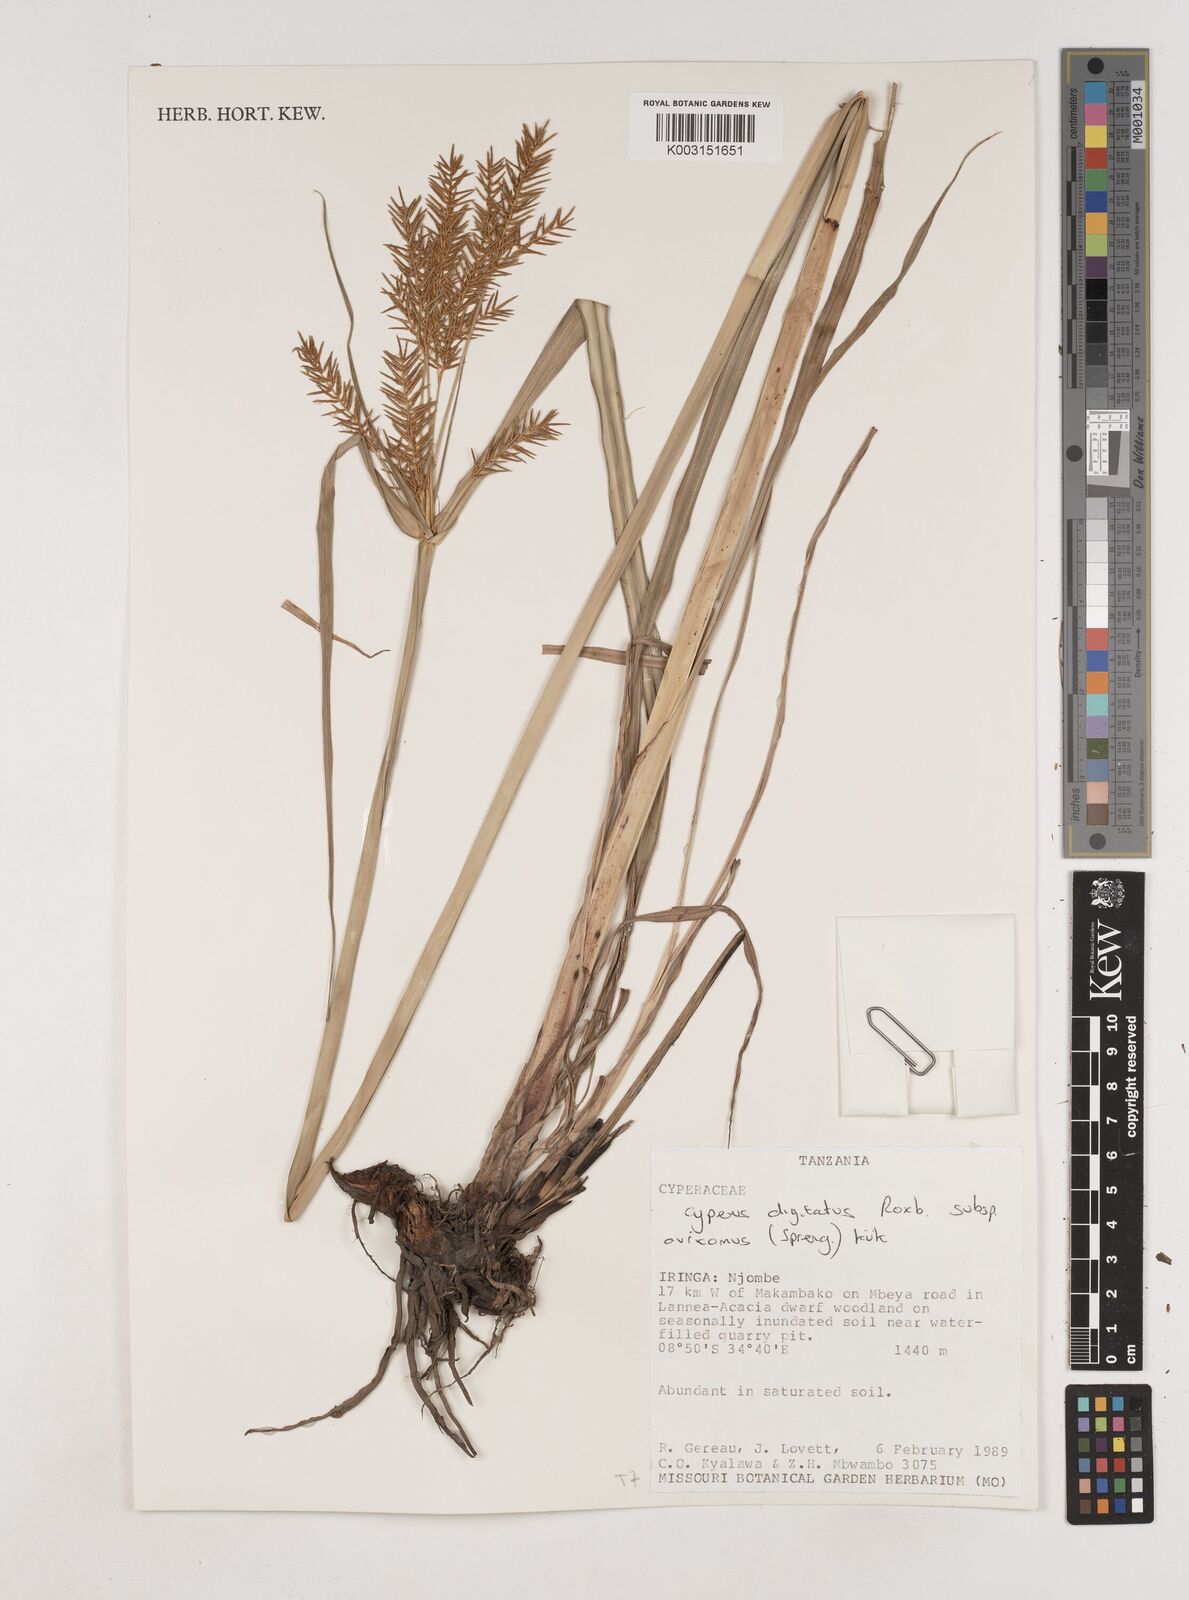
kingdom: Plantae
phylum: Tracheophyta
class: Liliopsida
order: Poales
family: Cyperaceae
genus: Cyperus
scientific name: Cyperus digitatus
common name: Finger flatsedge
